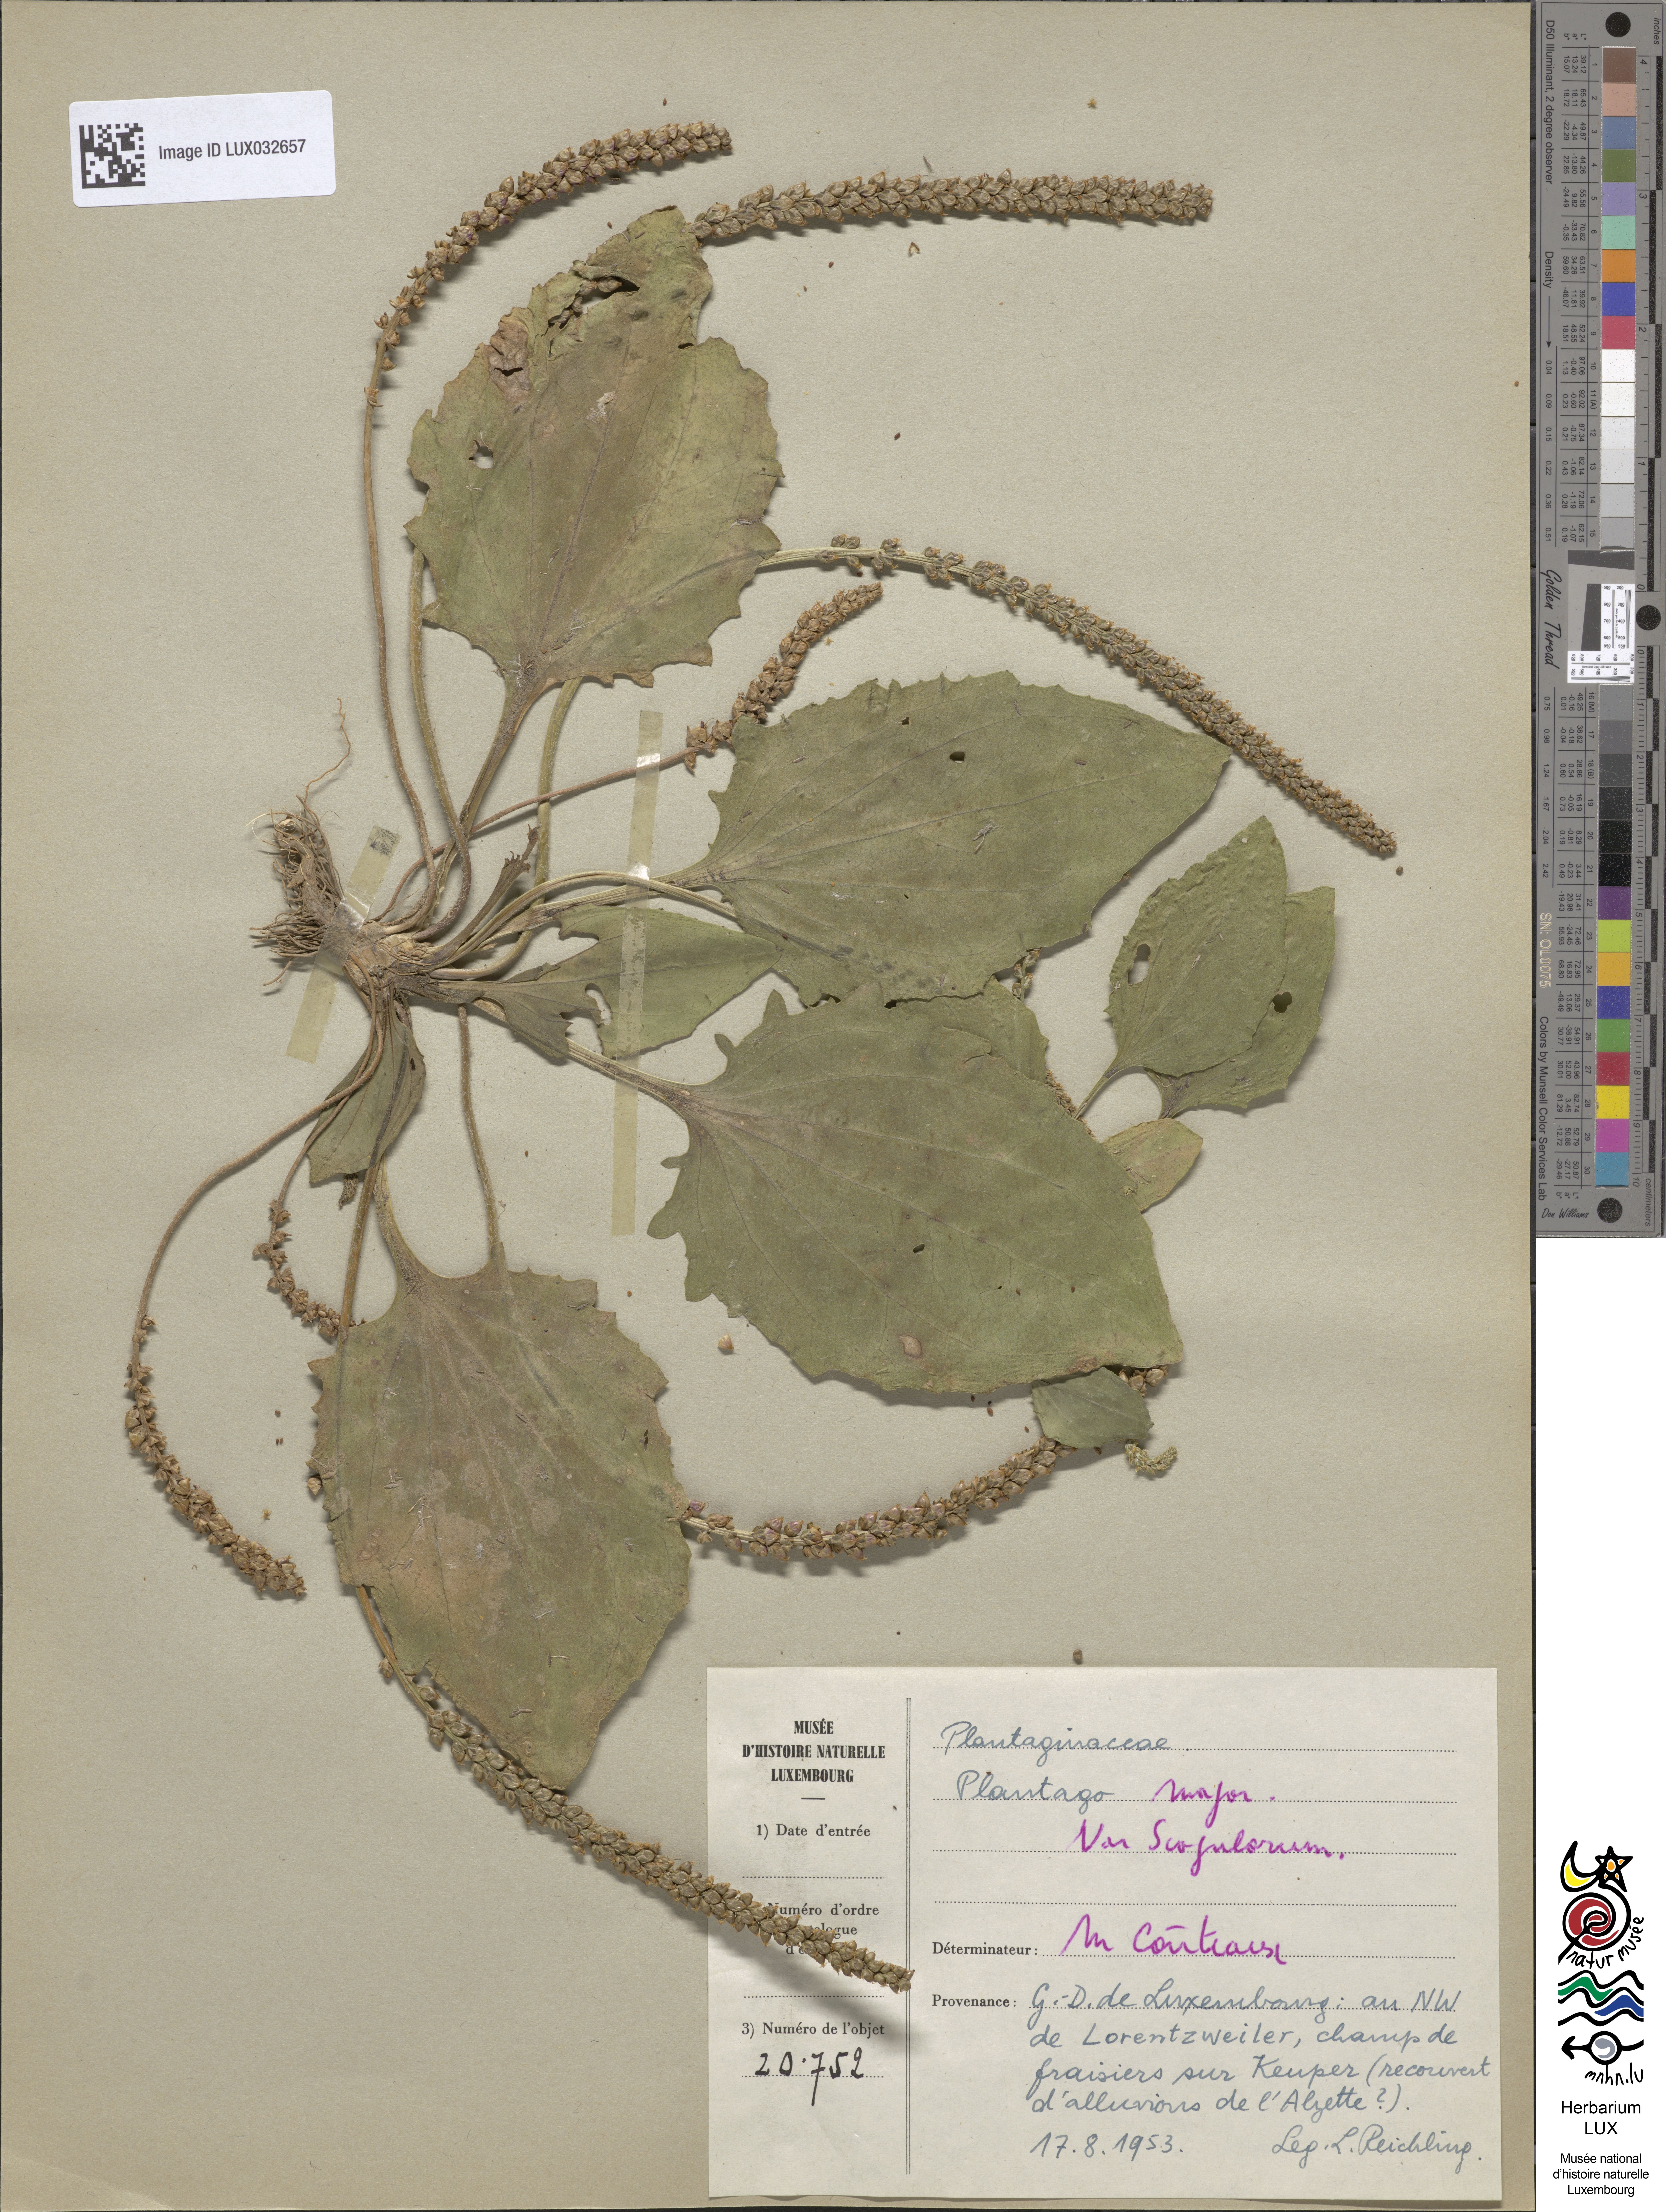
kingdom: Plantae
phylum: Tracheophyta
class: Magnoliopsida
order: Lamiales
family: Plantaginaceae
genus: Plantago
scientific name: Plantago major
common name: Common plantain
